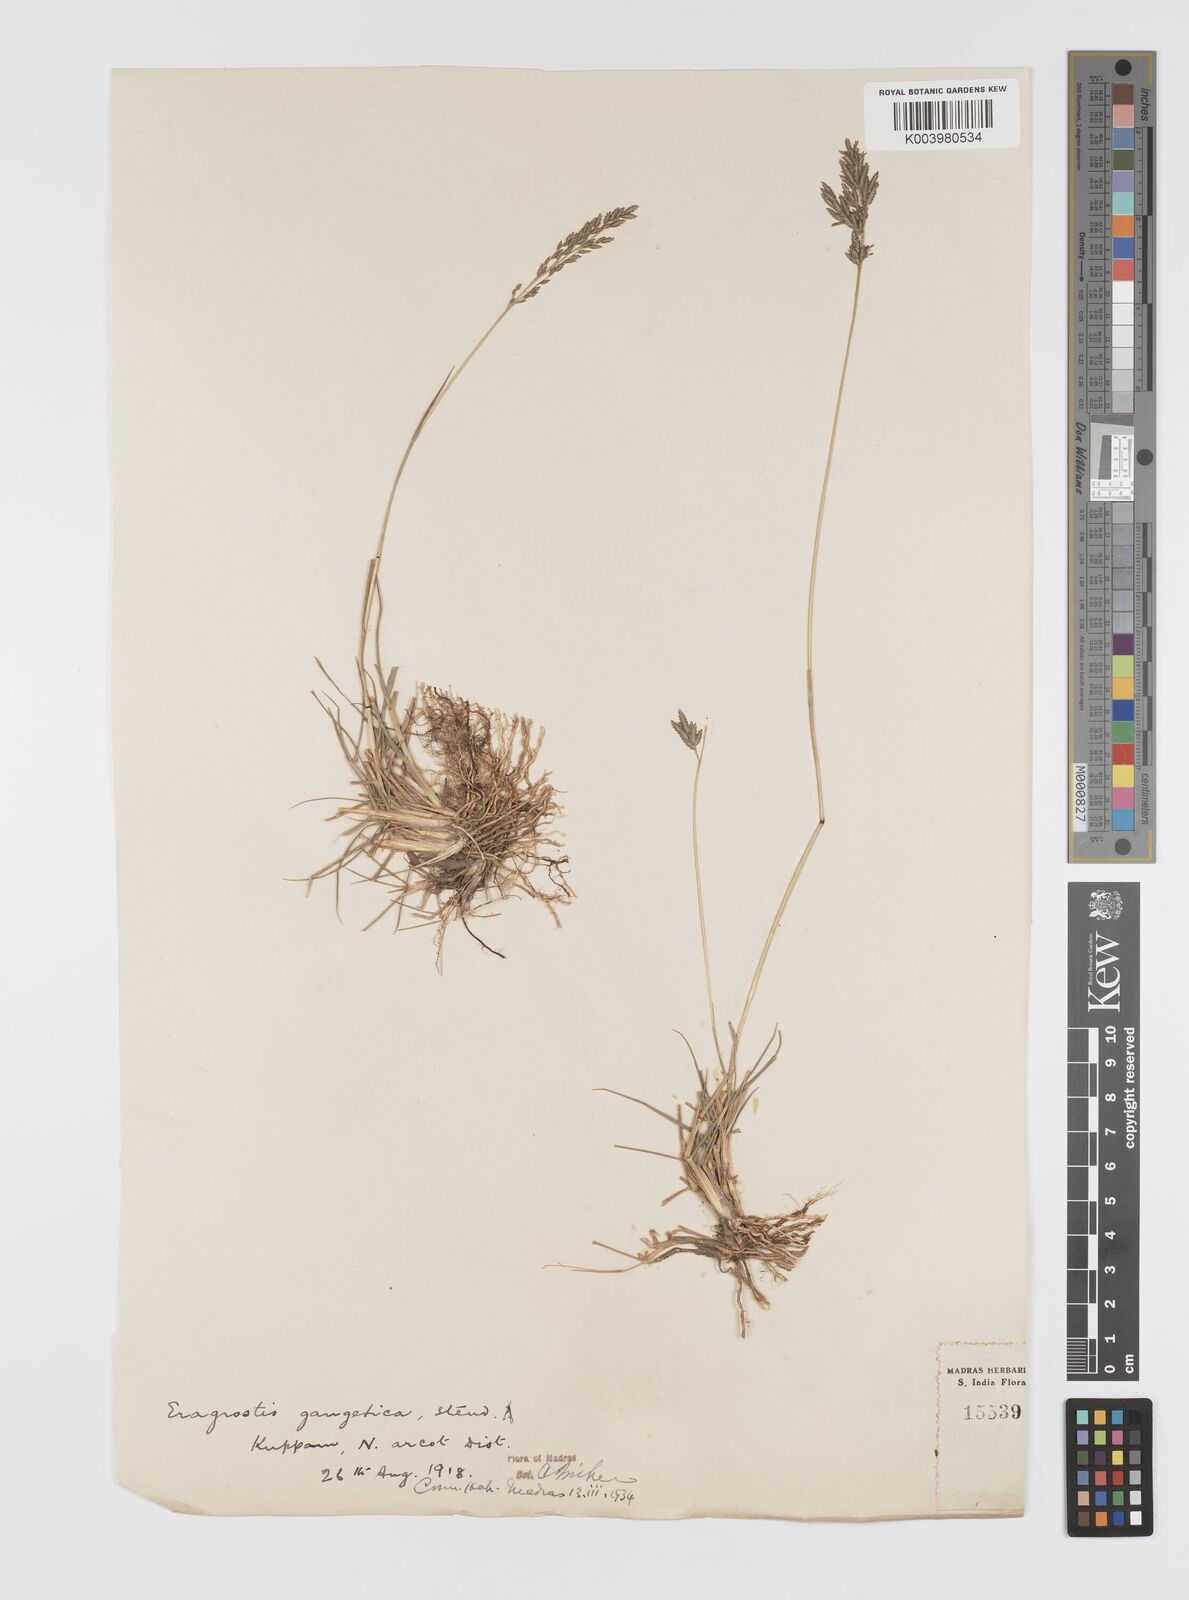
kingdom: Plantae
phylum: Tracheophyta
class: Liliopsida
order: Poales
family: Poaceae
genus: Eragrostis
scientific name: Eragrostis
